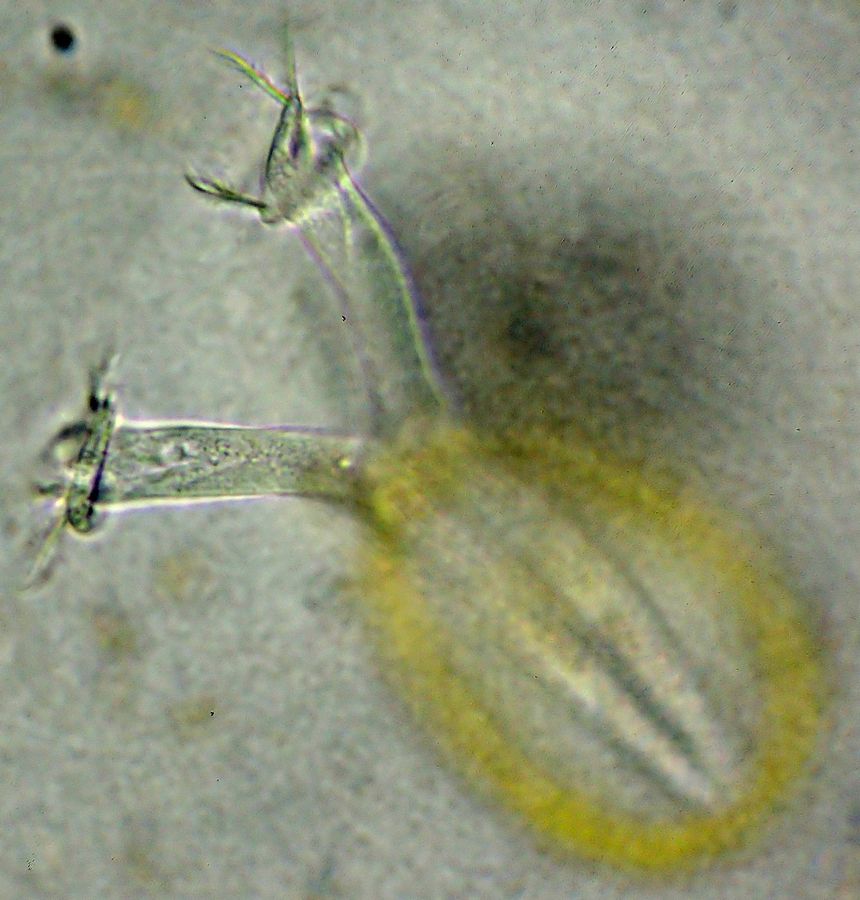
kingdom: Chromista
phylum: Ciliophora
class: Oligohymenophorea
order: Peritrichida
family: Vaginicolidae
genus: Platycola
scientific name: Platycola decumbens
